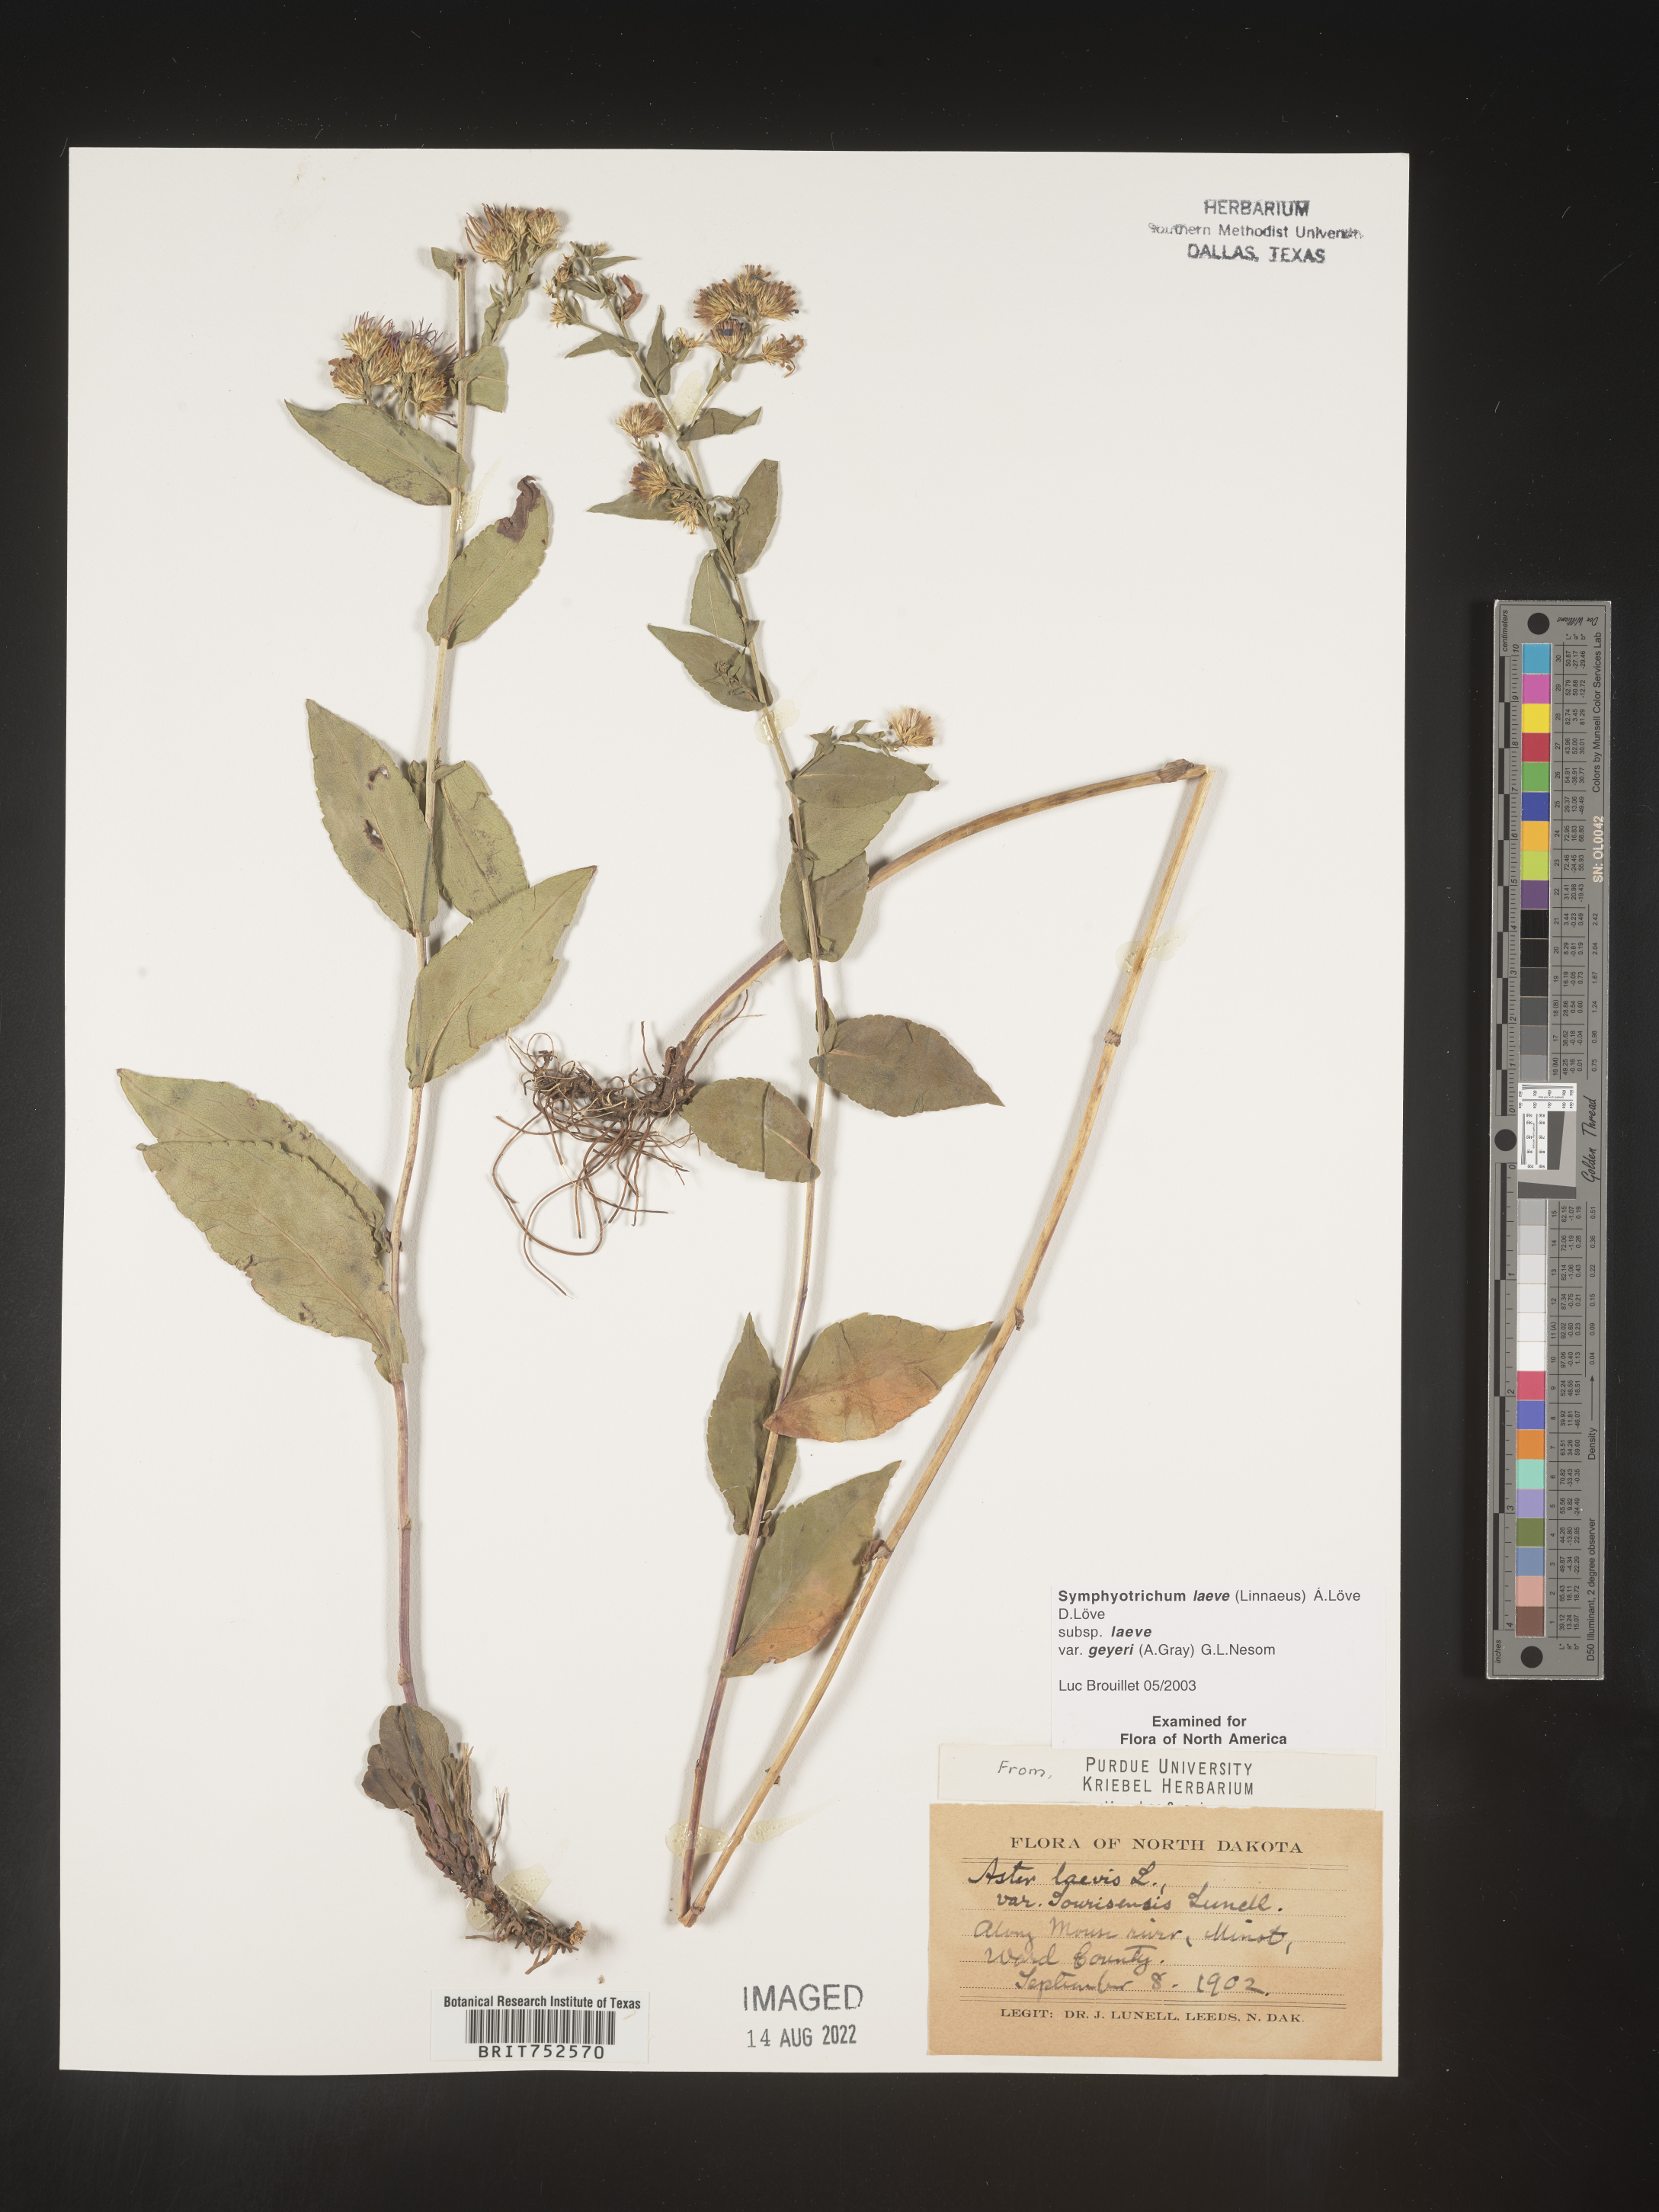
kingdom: Plantae
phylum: Tracheophyta
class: Magnoliopsida
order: Asterales
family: Asteraceae
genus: Symphyotrichum
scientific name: Symphyotrichum laeve
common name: Glaucous aster
